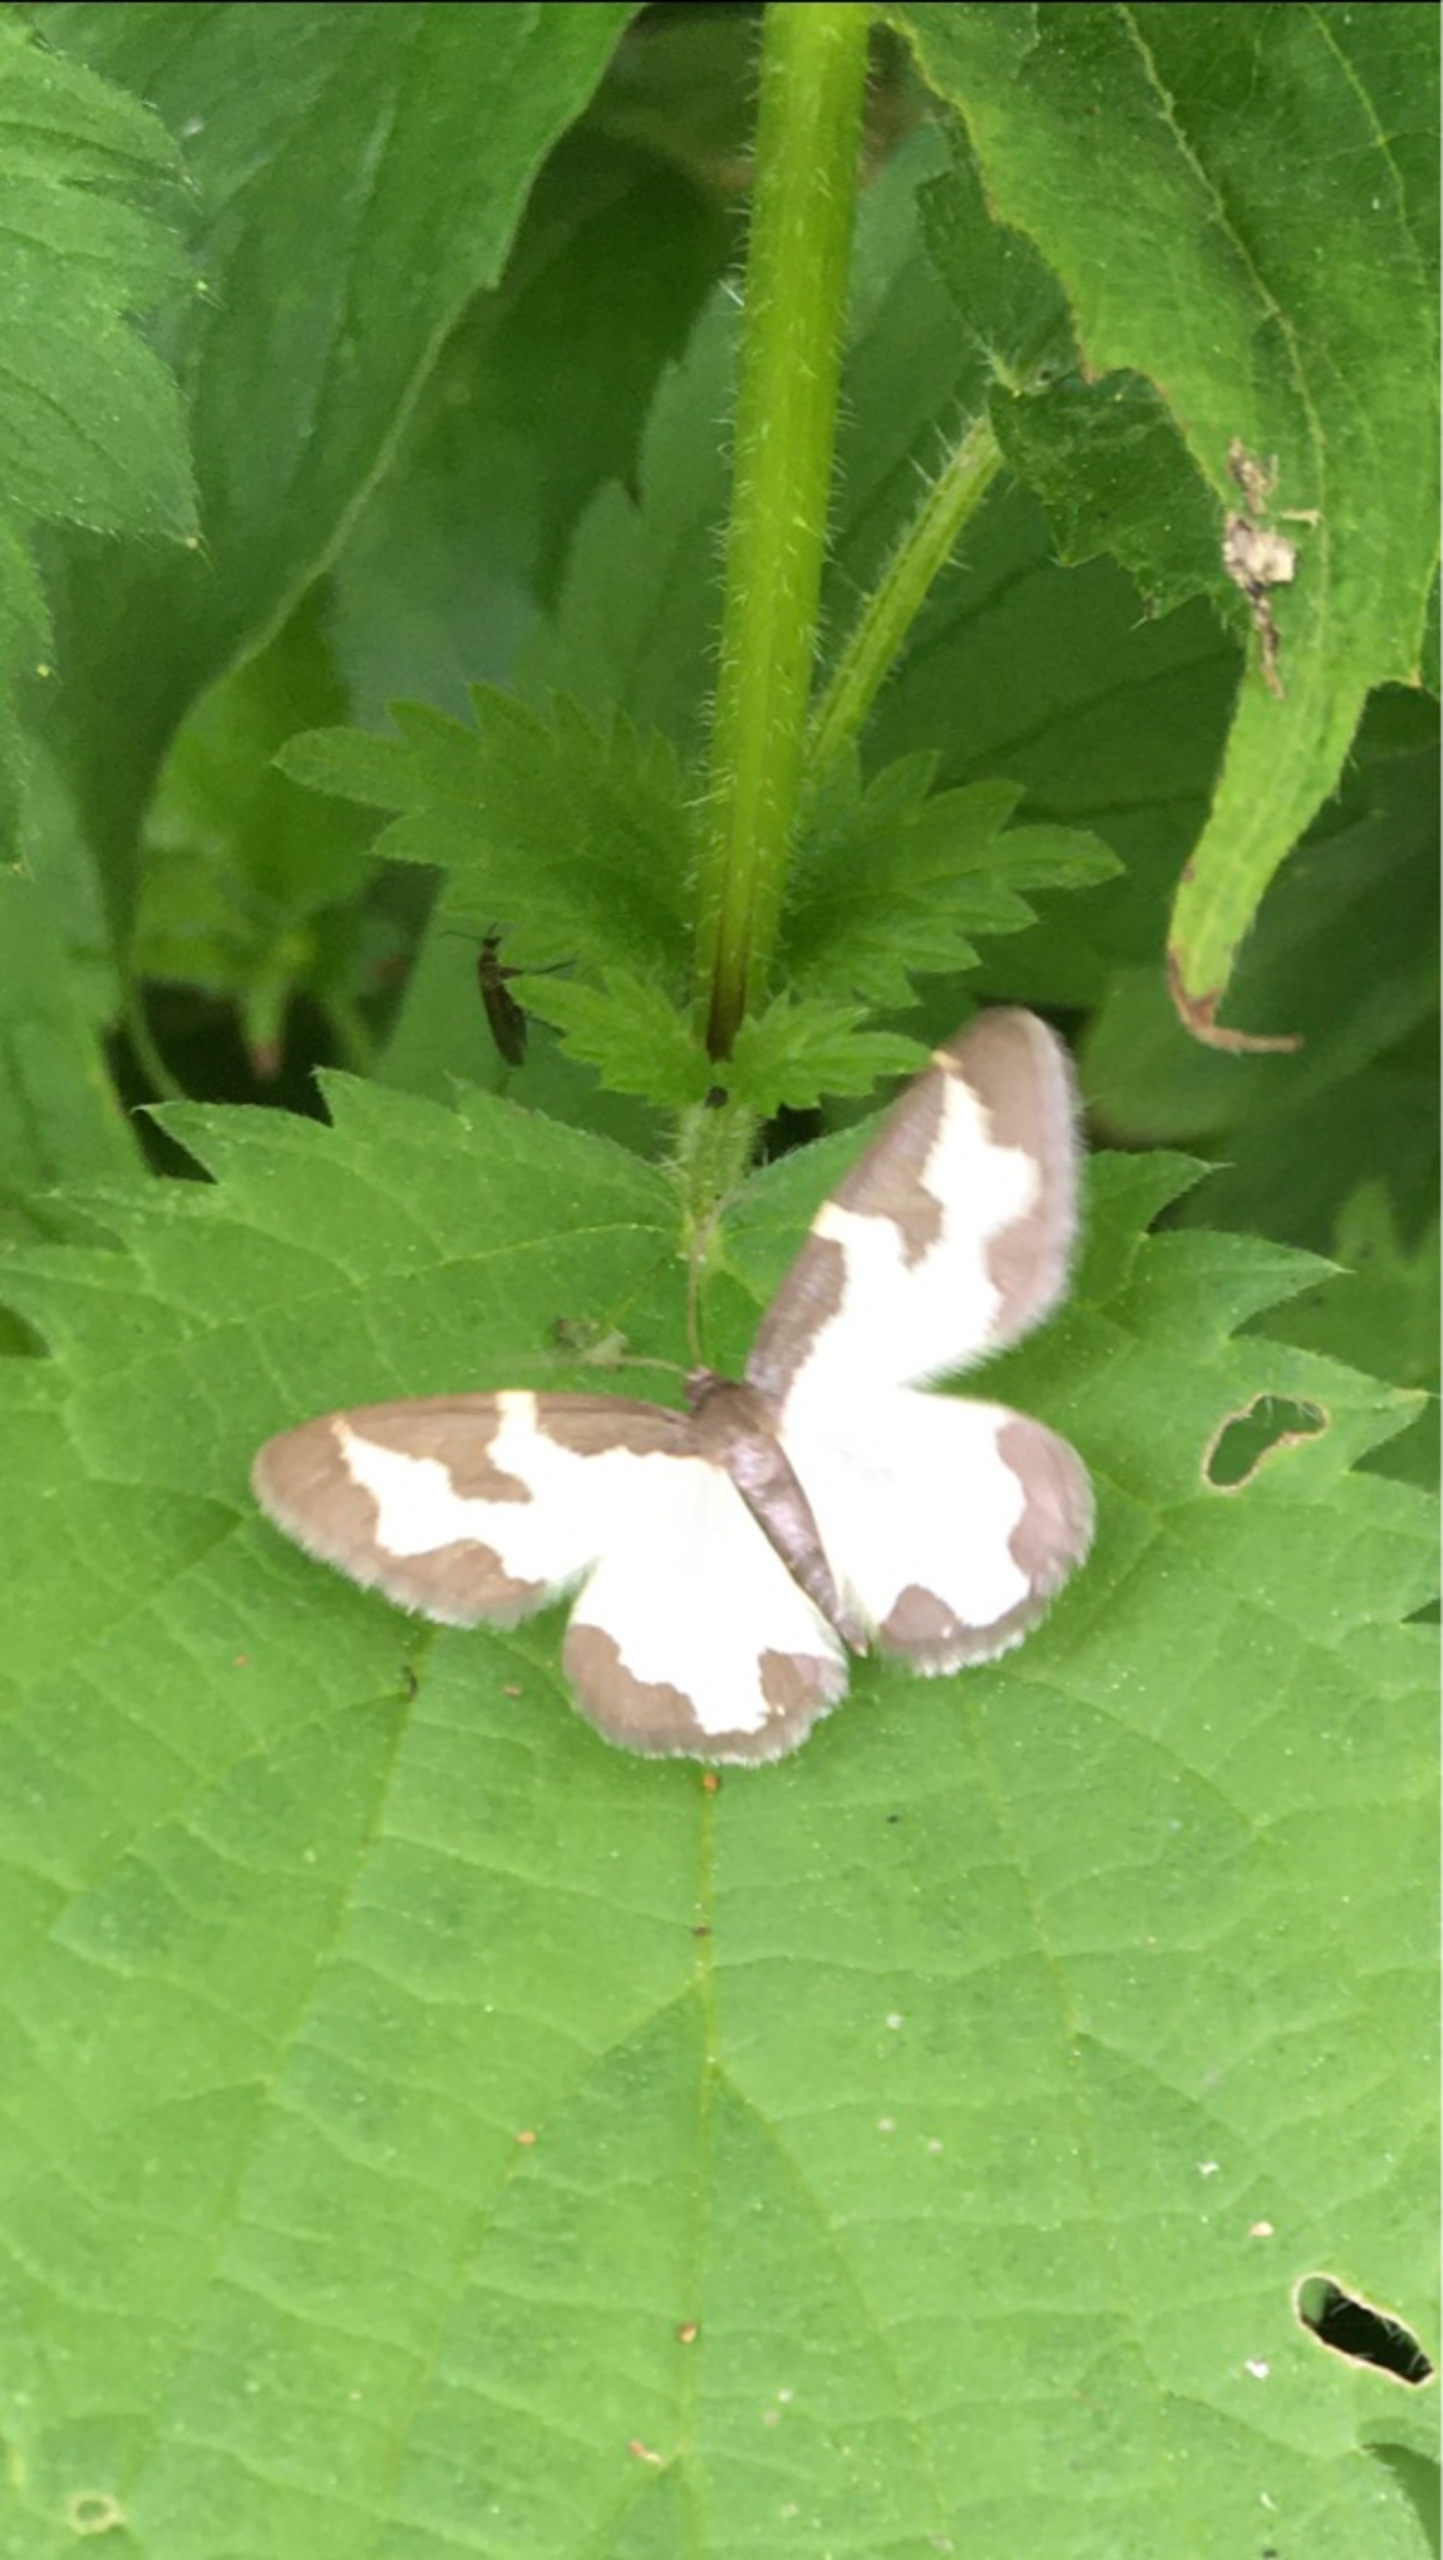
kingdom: Animalia
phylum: Arthropoda
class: Insecta
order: Lepidoptera
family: Geometridae
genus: Lomaspilis
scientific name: Lomaspilis marginata
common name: Sortrandet måler
